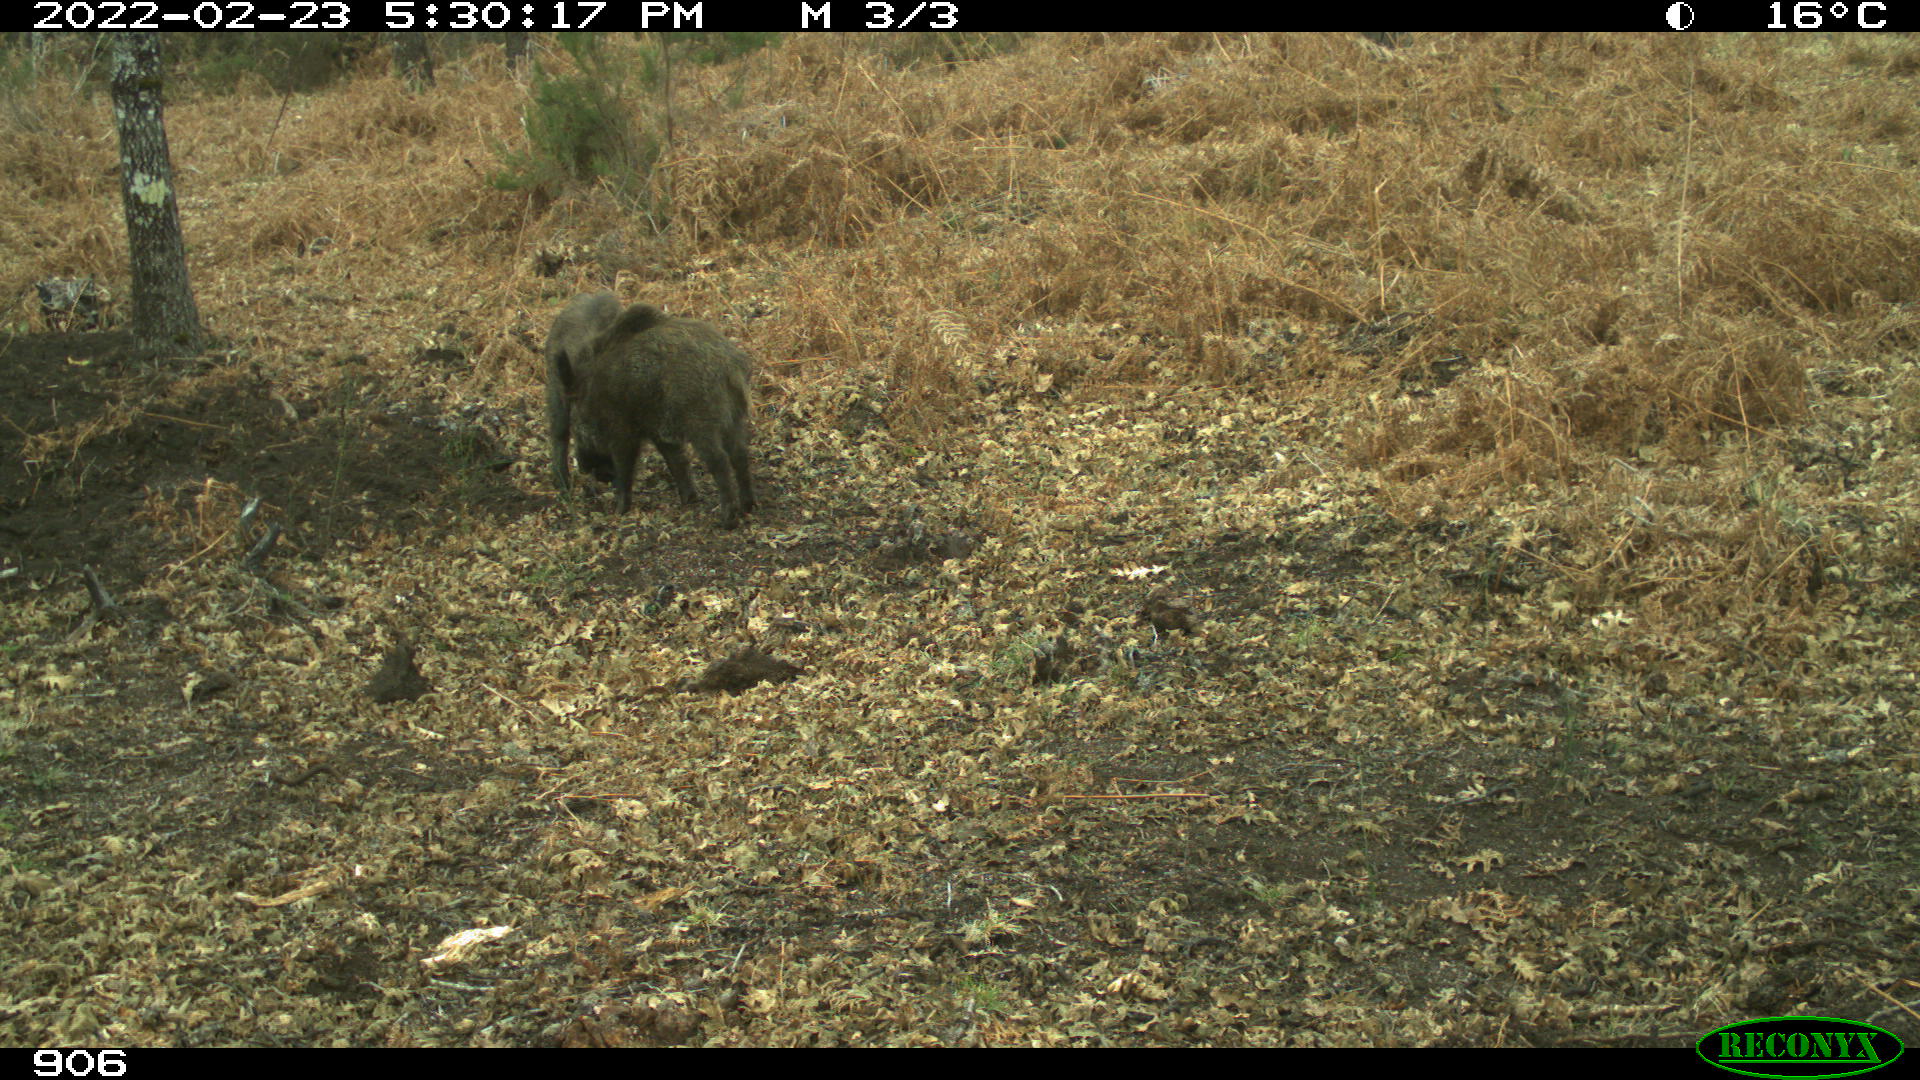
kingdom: Animalia
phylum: Chordata
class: Mammalia
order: Artiodactyla
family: Suidae
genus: Sus
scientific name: Sus scrofa
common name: Wild boar
